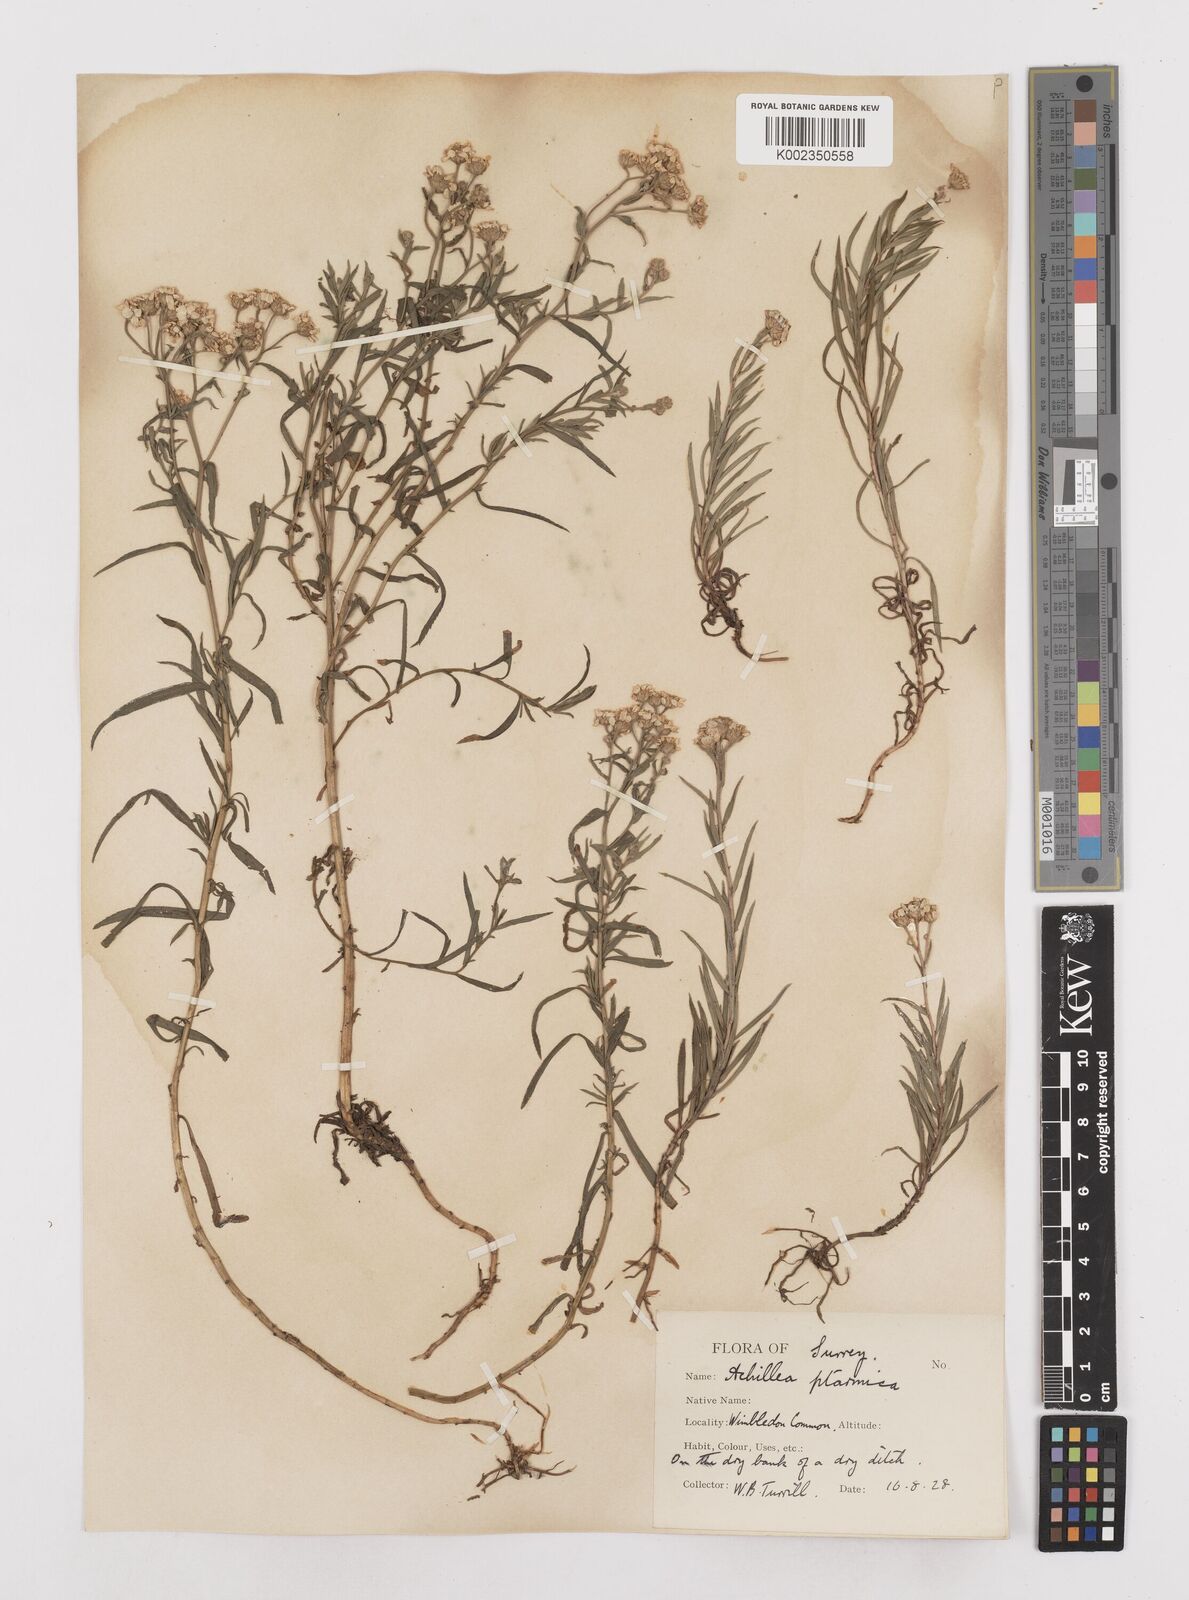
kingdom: Plantae
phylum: Tracheophyta
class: Magnoliopsida
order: Asterales
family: Asteraceae
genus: Achillea
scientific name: Achillea ptarmica
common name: Sneezeweed
